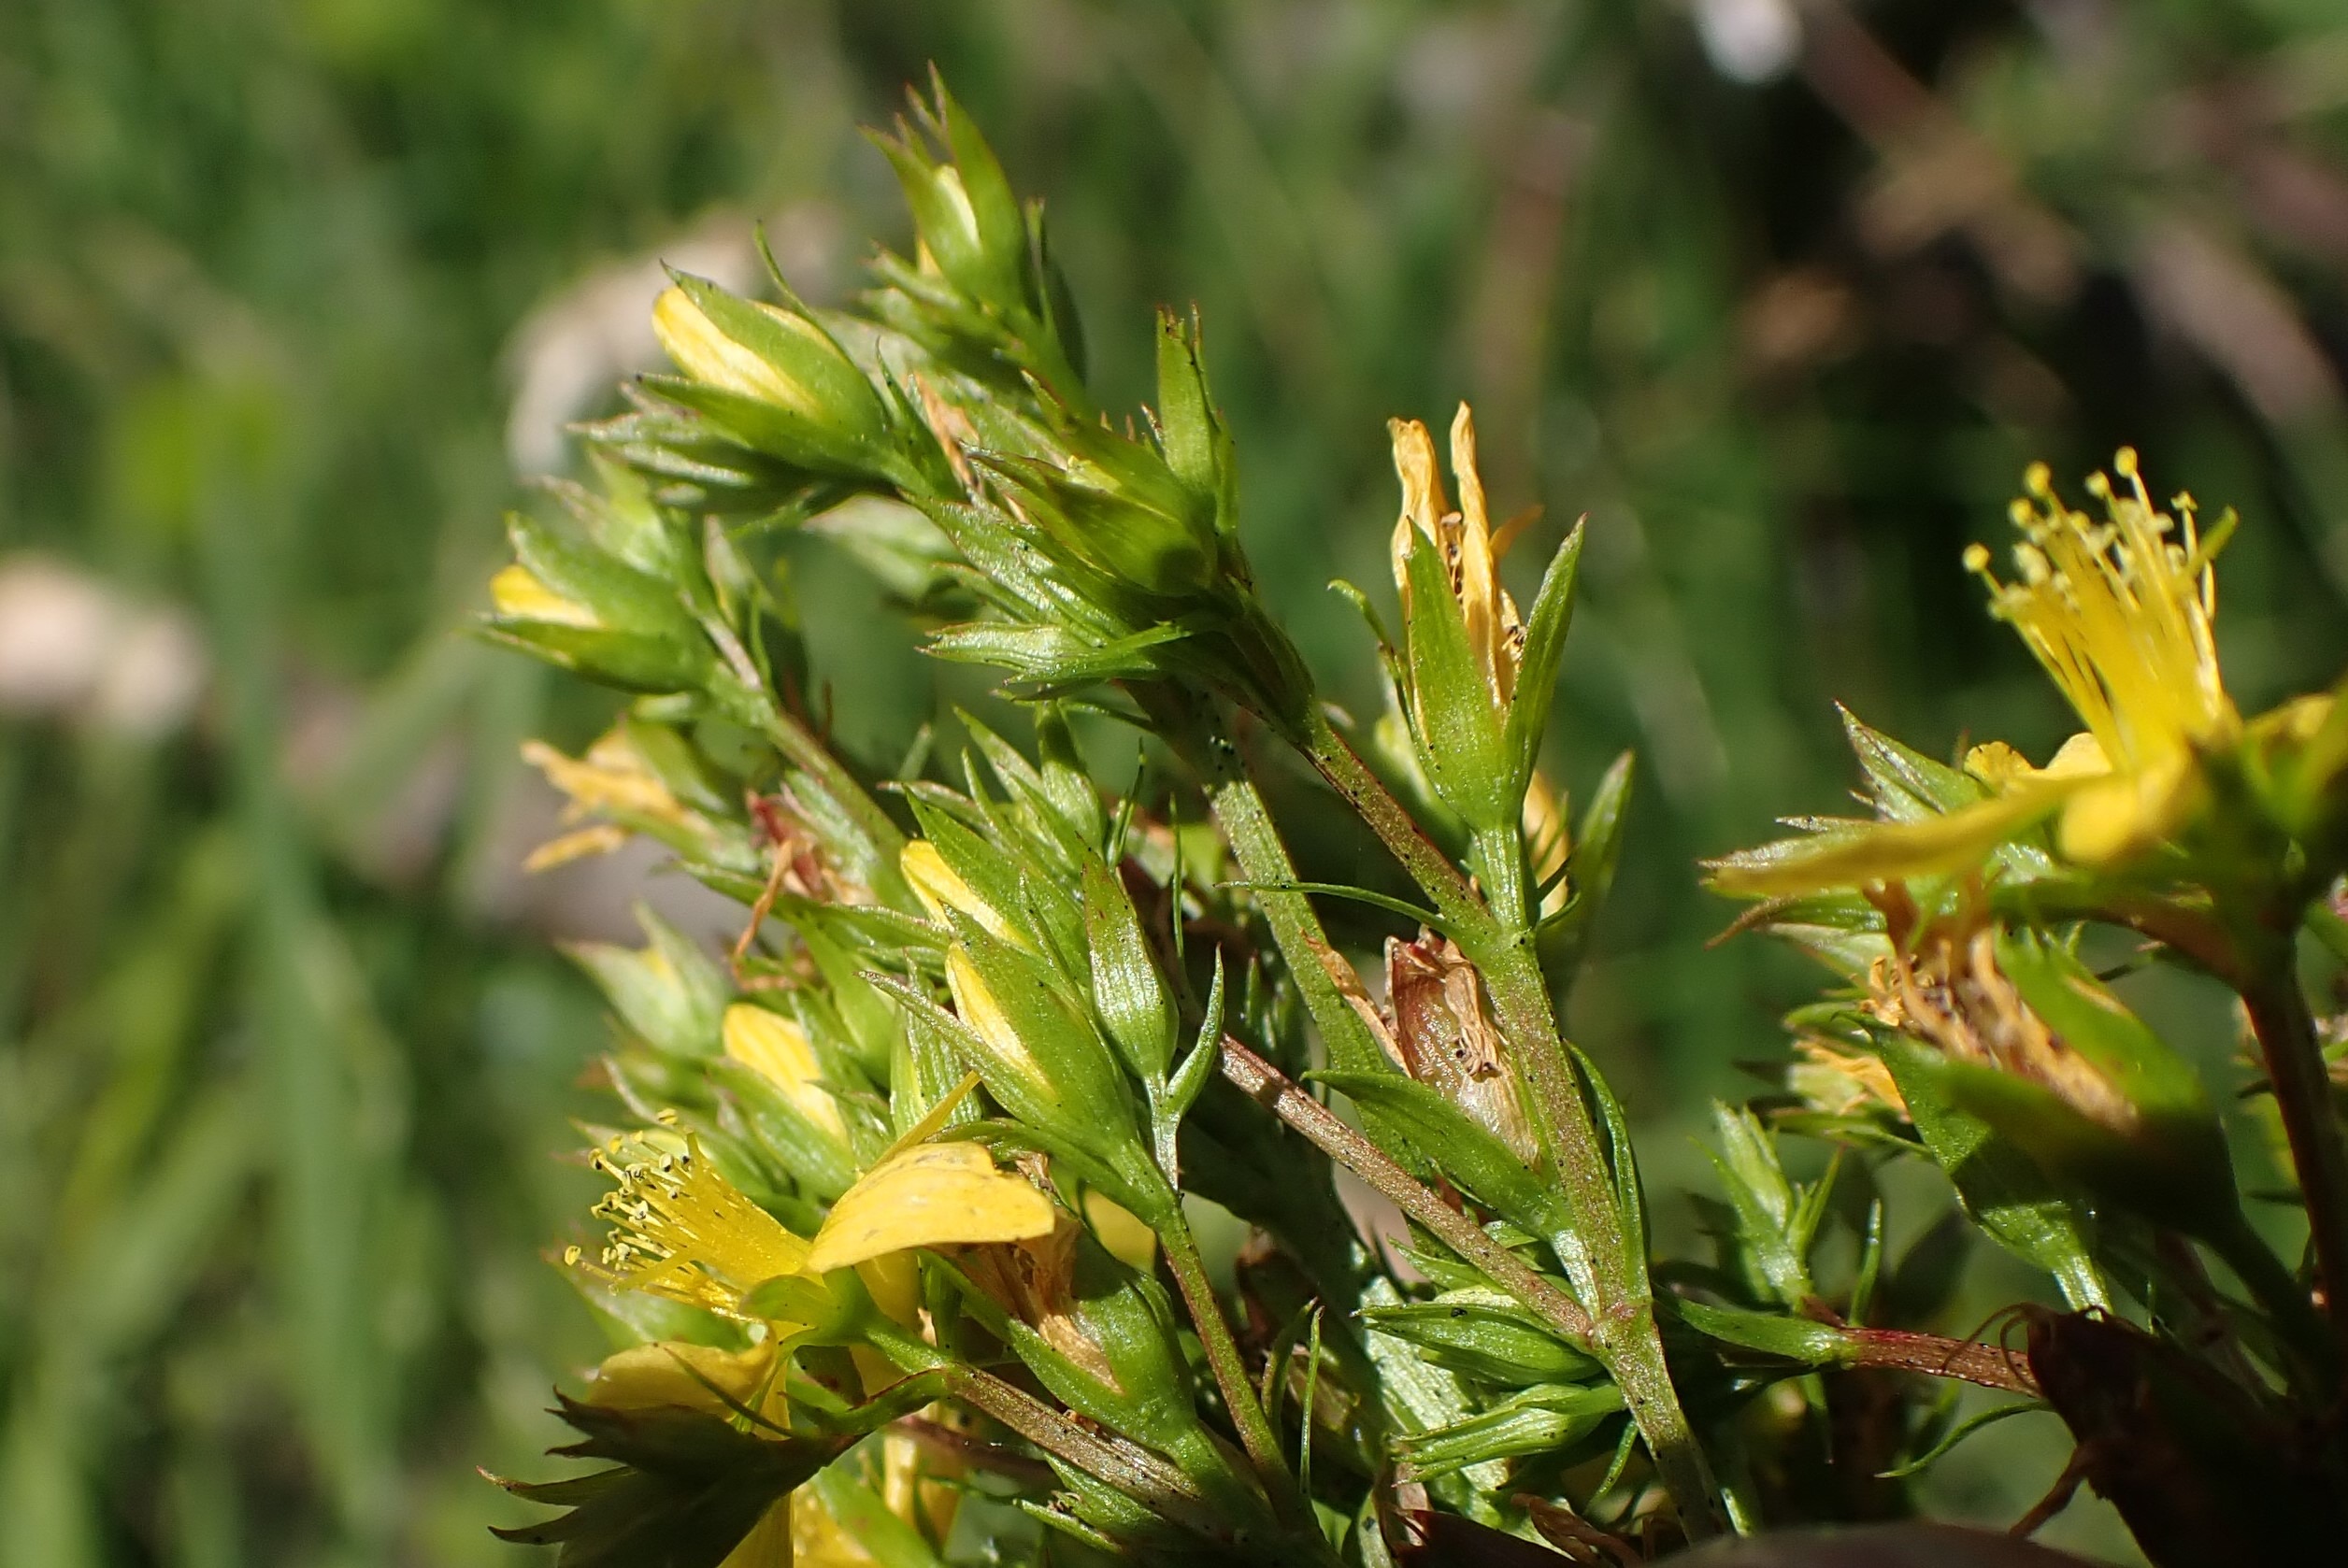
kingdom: Plantae
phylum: Tracheophyta
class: Magnoliopsida
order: Malpighiales
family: Hypericaceae
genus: Hypericum
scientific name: Hypericum tetrapterum
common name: Vinget perikon
